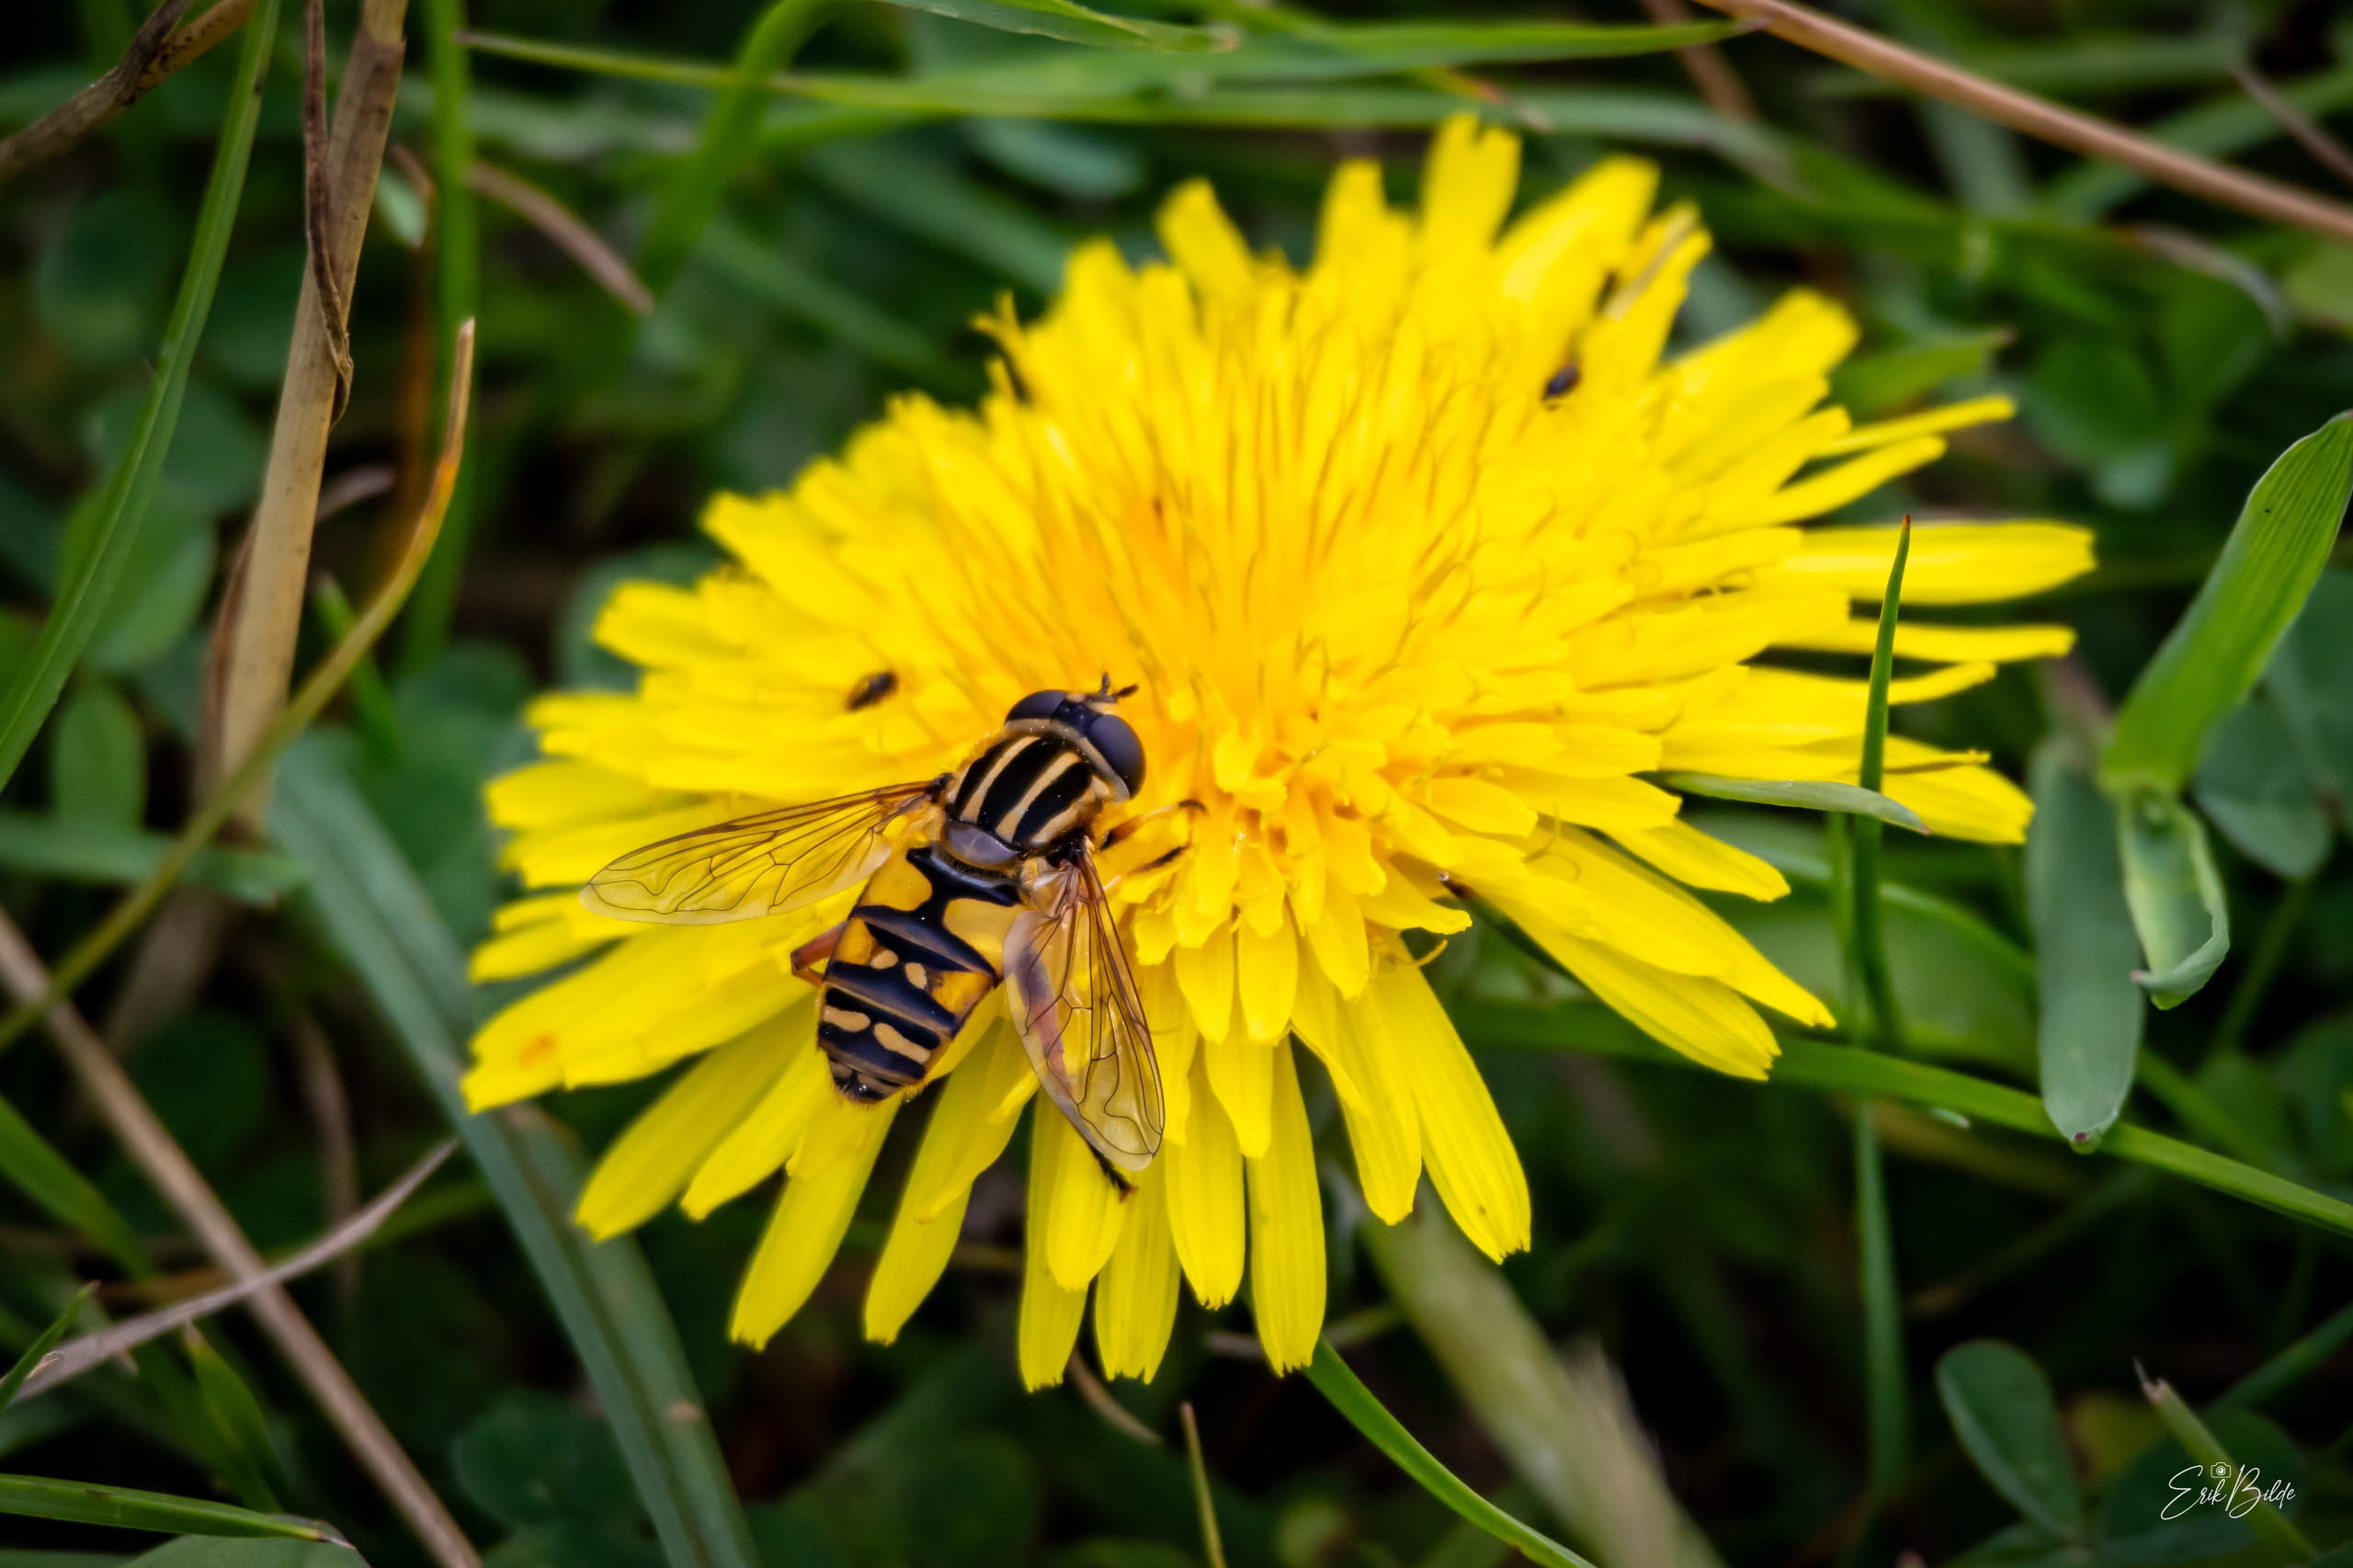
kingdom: Animalia
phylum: Arthropoda
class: Insecta
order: Diptera
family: Syrphidae
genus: Helophilus
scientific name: Helophilus pendulus
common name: Almindelig sumpsvirreflue
